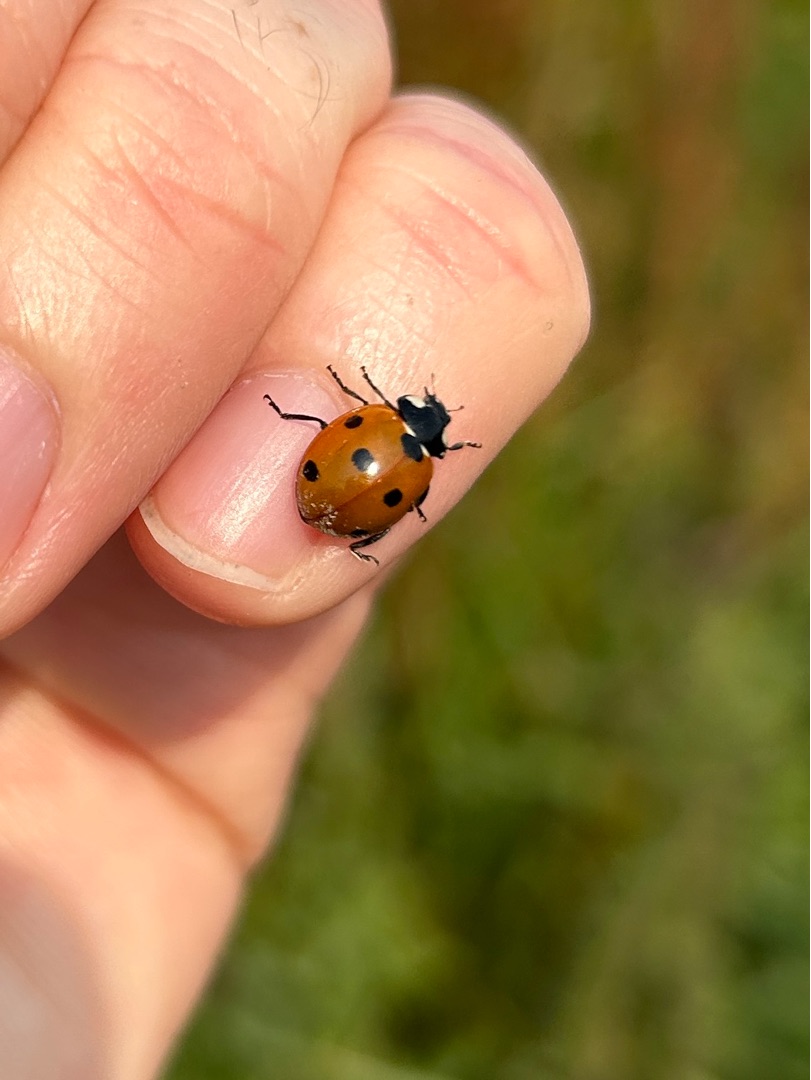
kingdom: Animalia
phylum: Arthropoda
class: Insecta
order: Coleoptera
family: Coccinellidae
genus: Coccinella
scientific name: Coccinella septempunctata
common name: Syvplettet mariehøne
